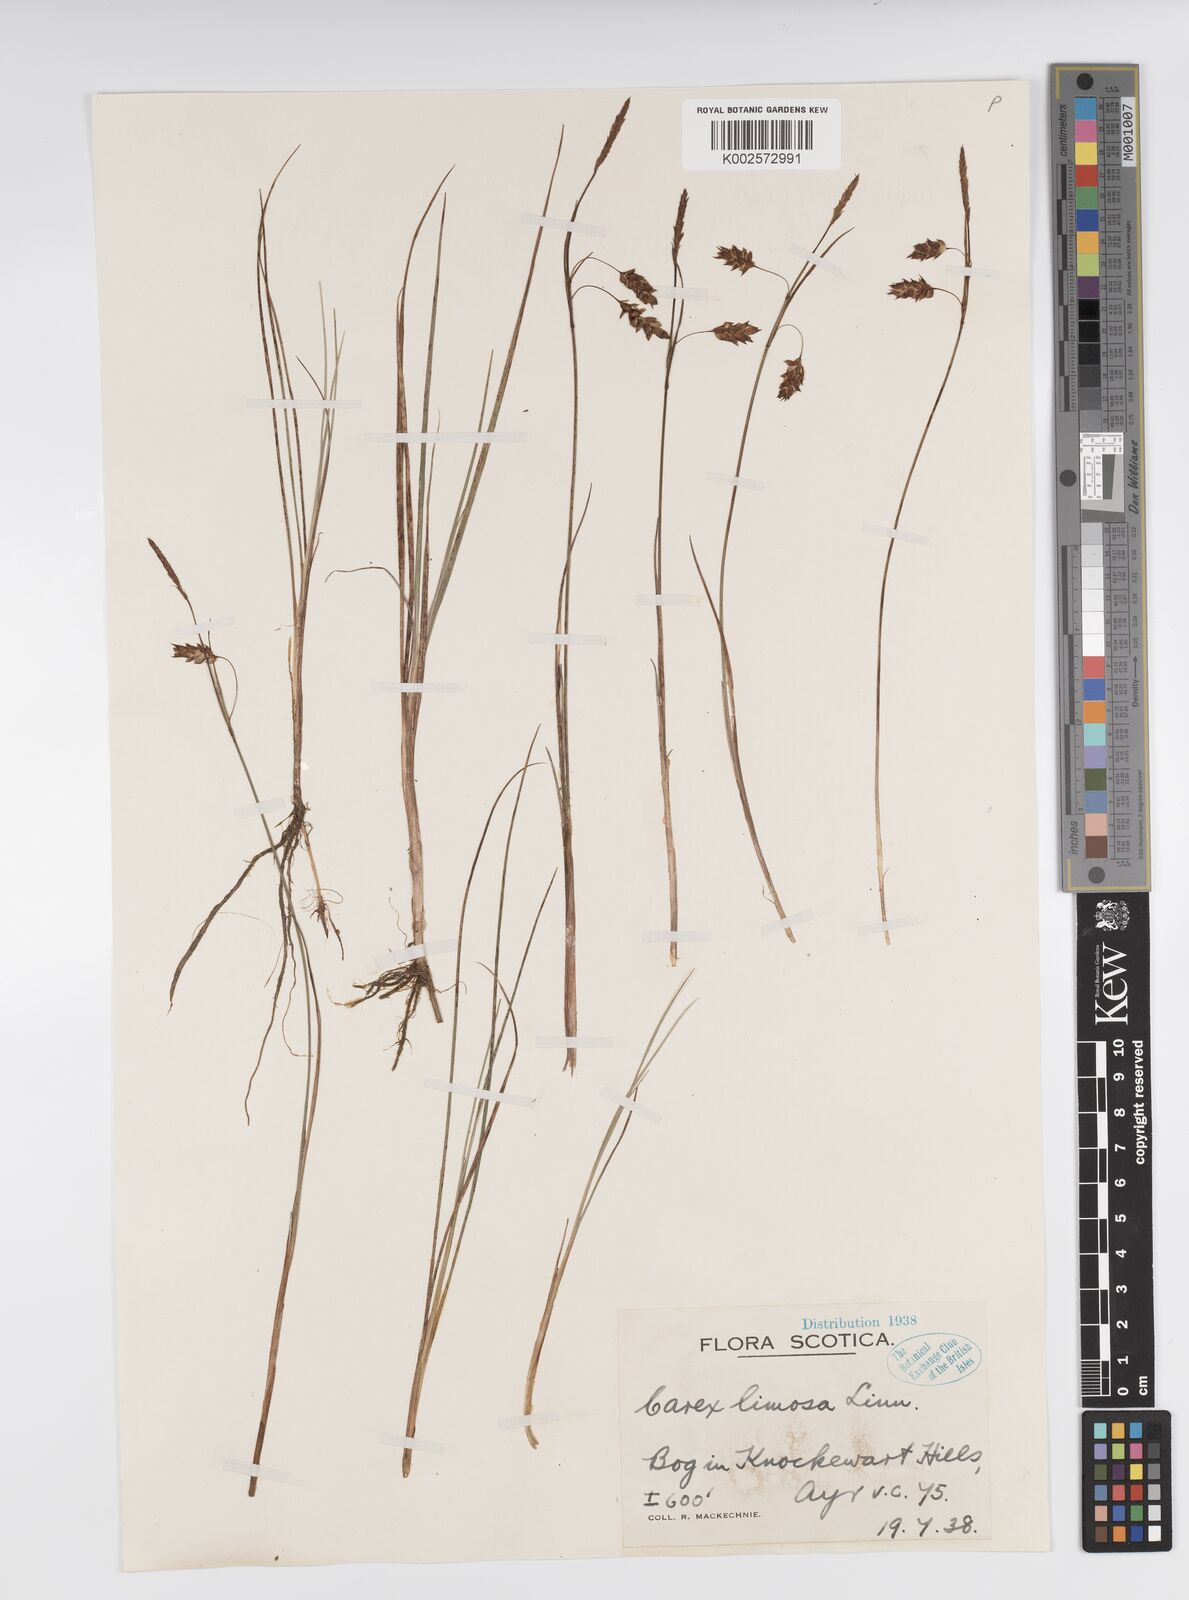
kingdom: Plantae
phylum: Tracheophyta
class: Liliopsida
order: Poales
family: Cyperaceae
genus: Carex
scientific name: Carex limosa
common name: Bog sedge
